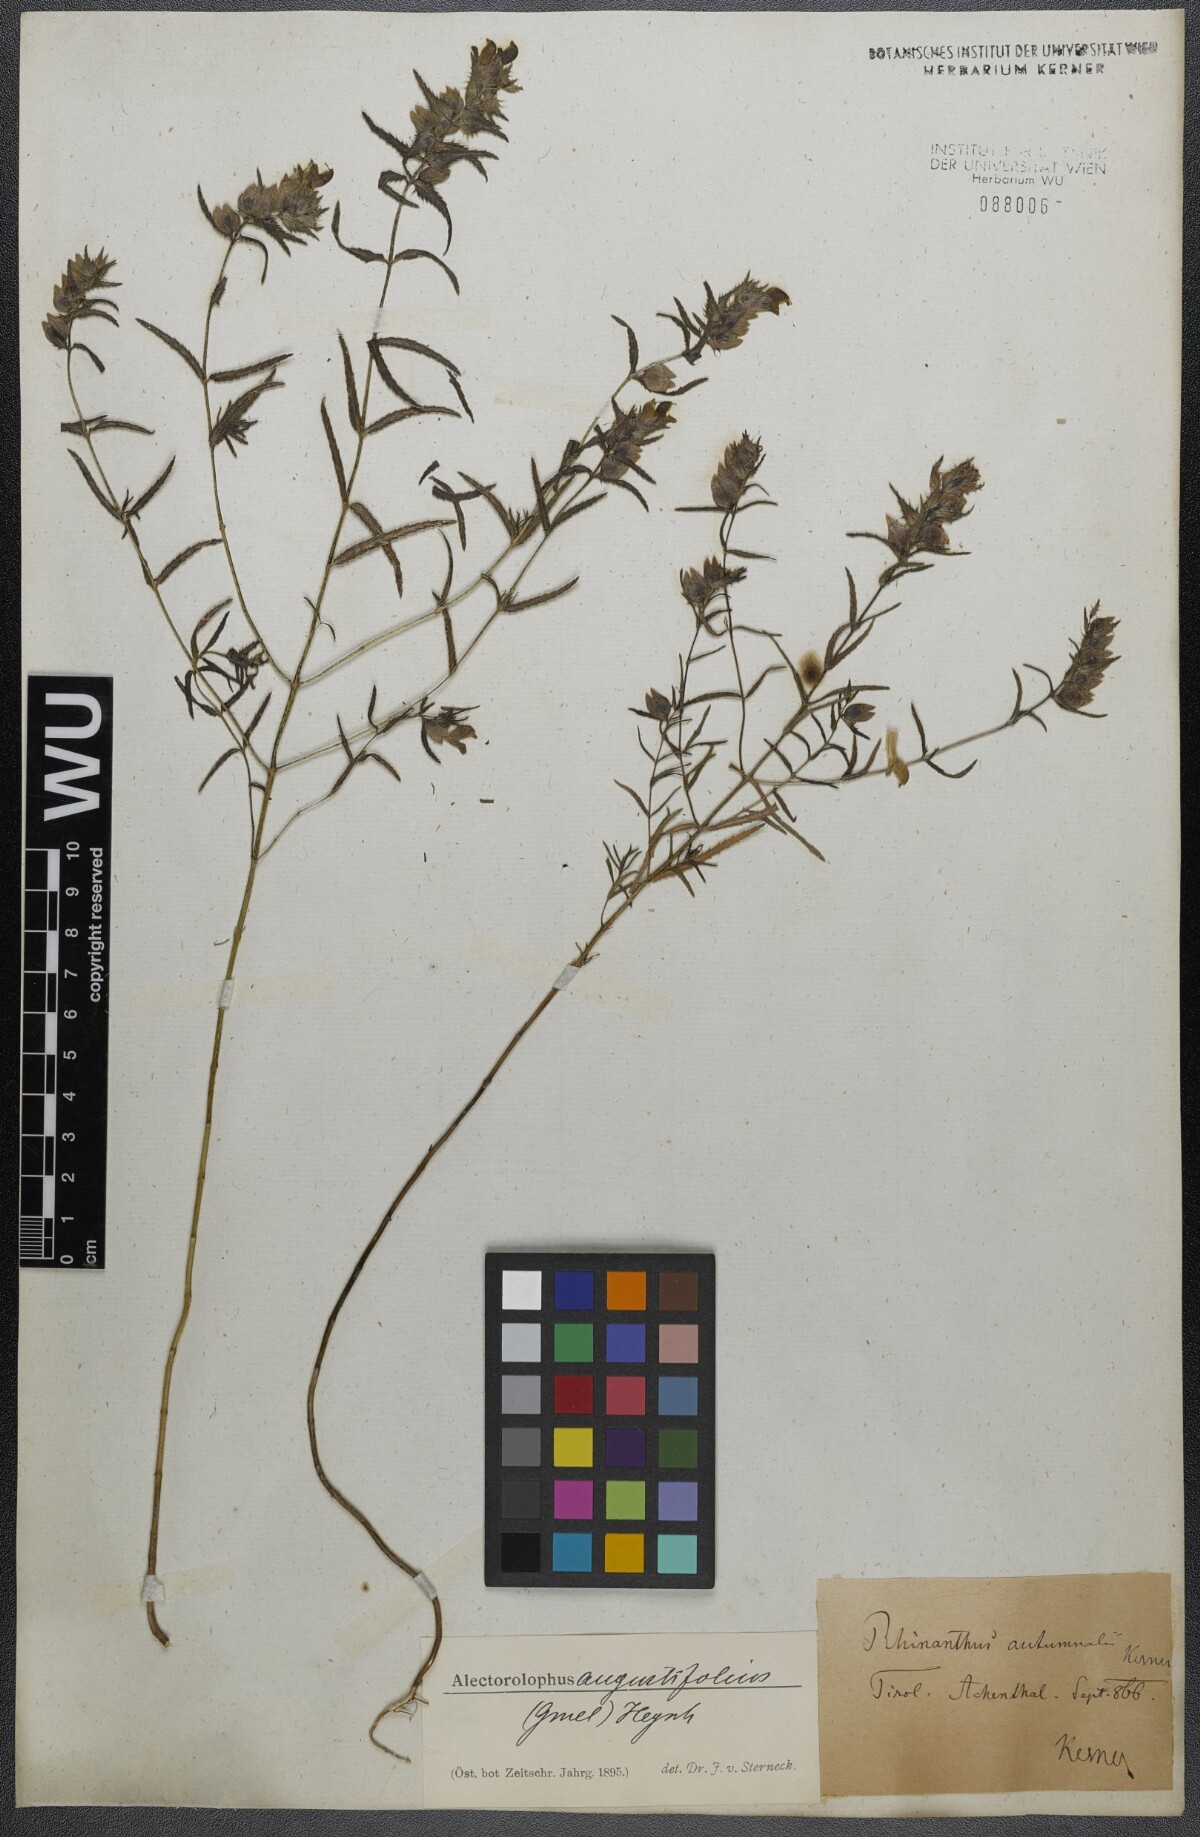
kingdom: Plantae
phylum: Tracheophyta
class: Magnoliopsida
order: Lamiales
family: Orobanchaceae
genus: Rhinanthus
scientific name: Rhinanthus
